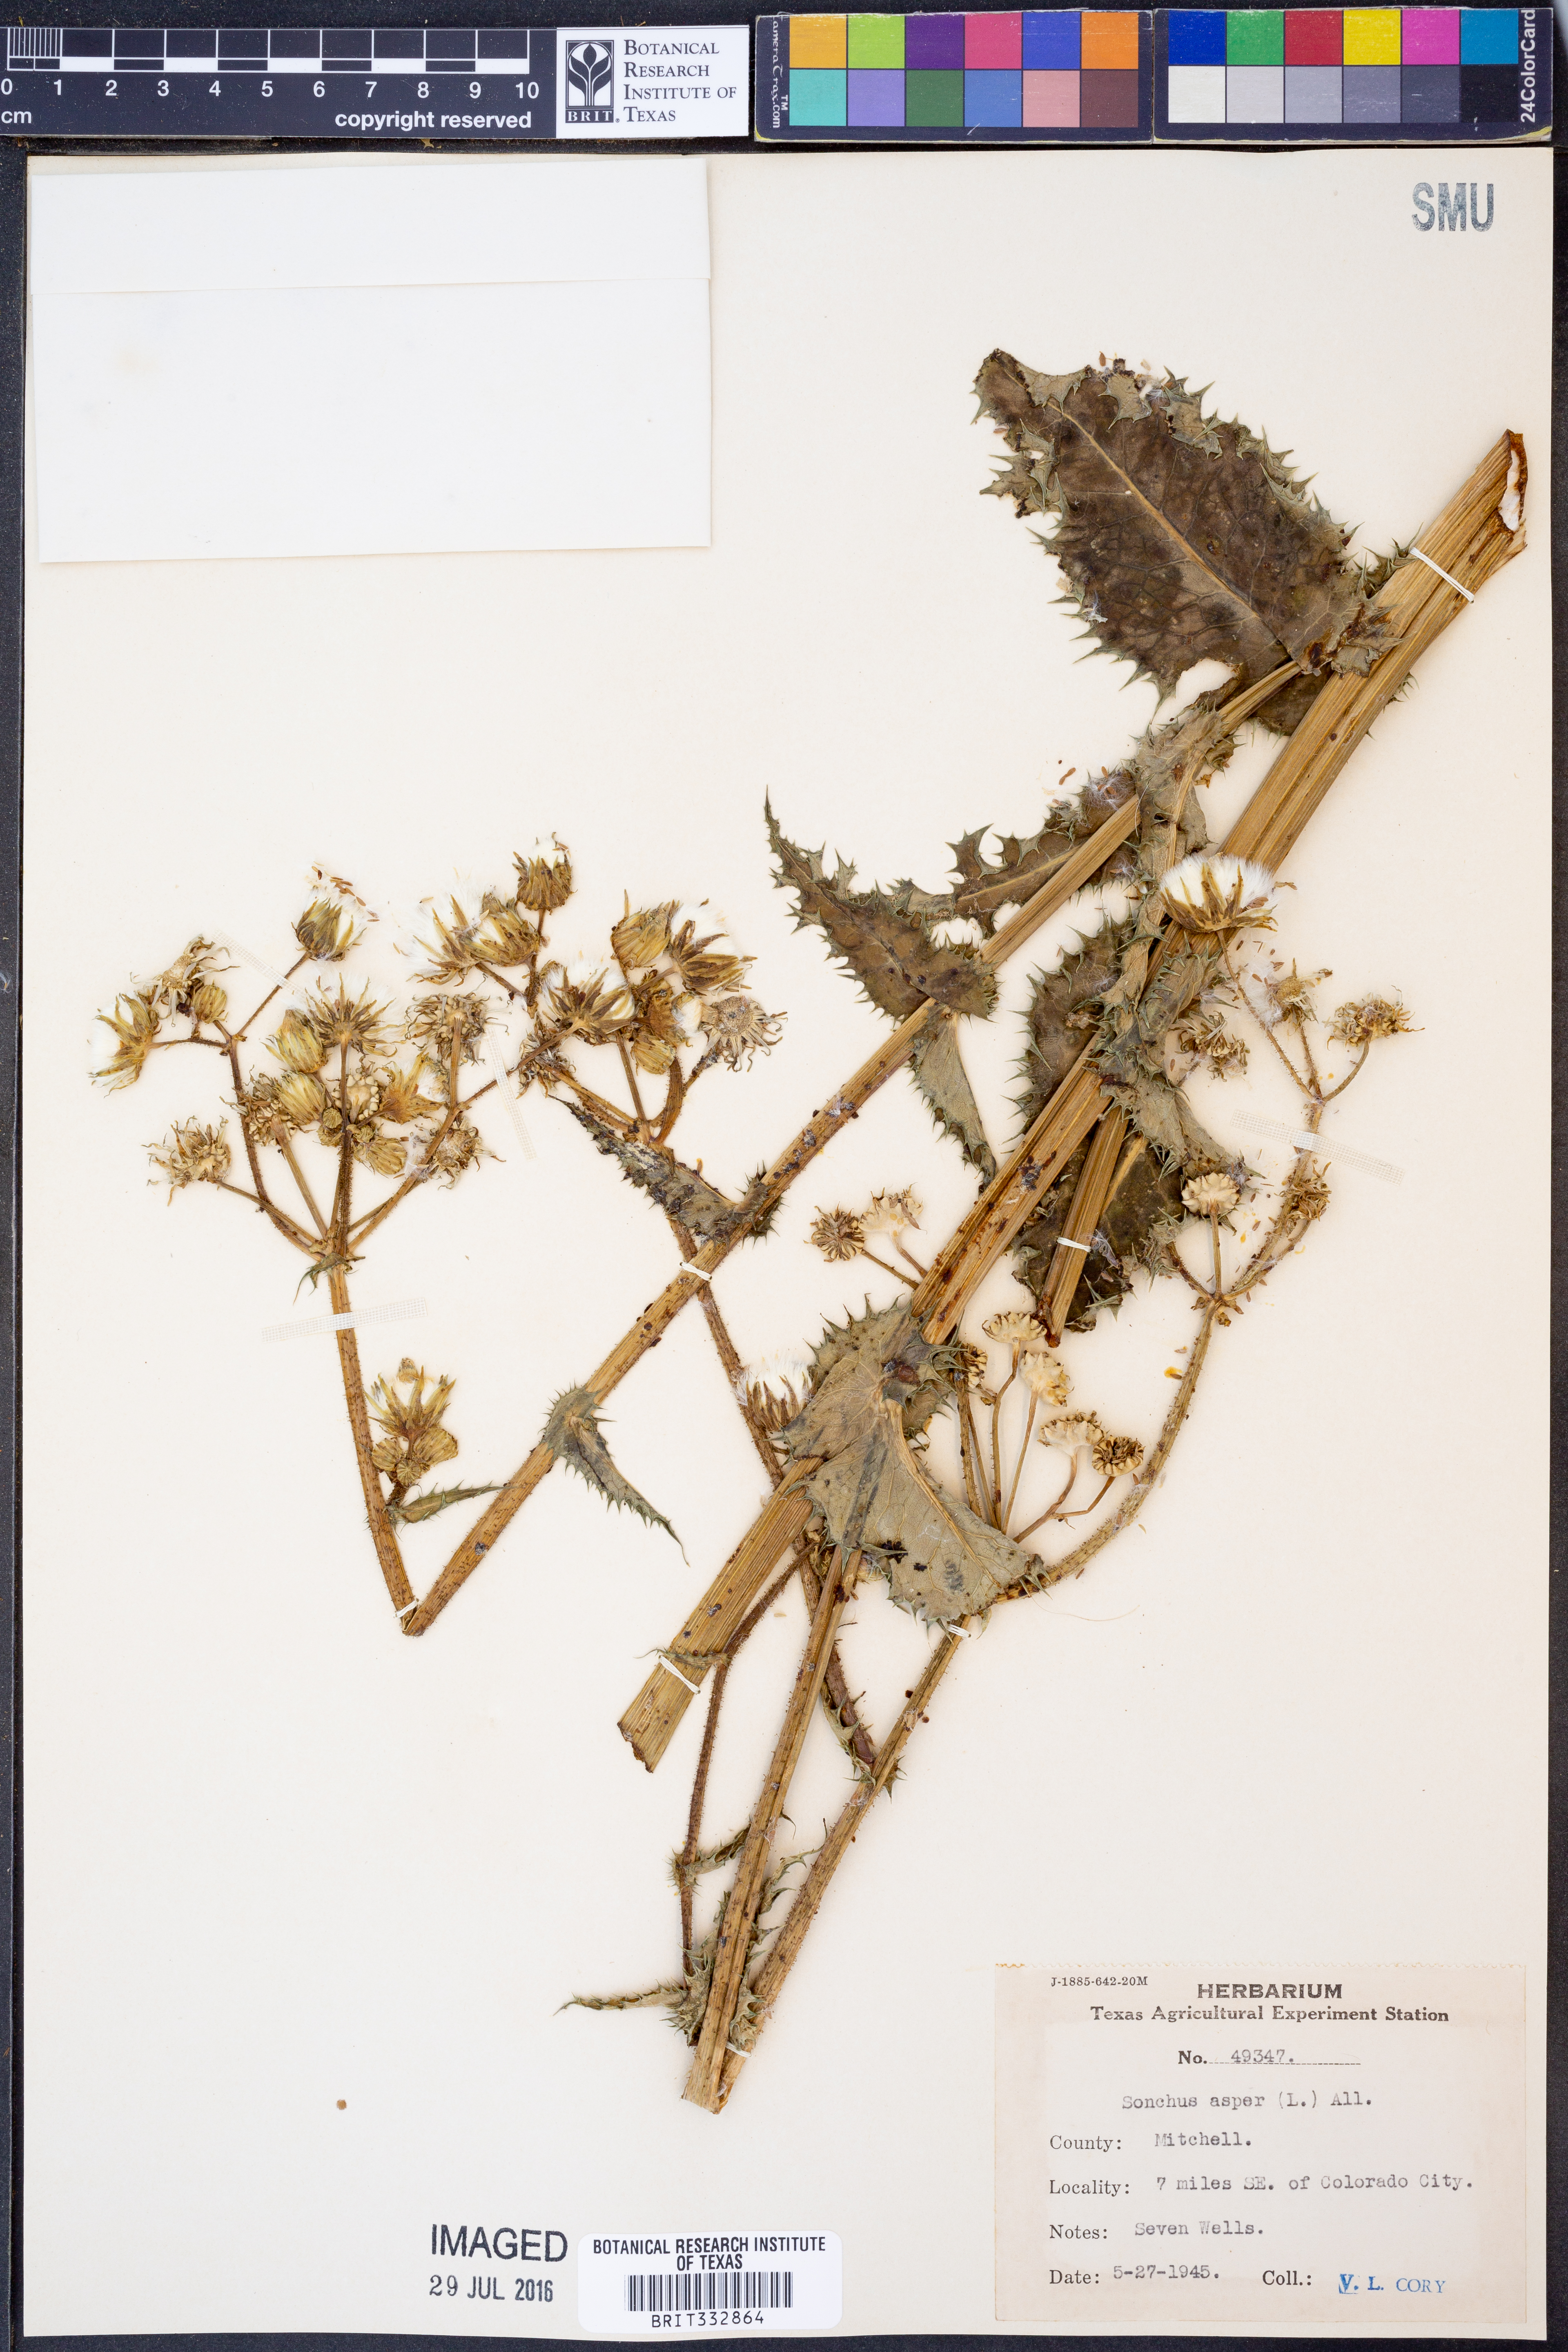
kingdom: Plantae
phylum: Tracheophyta
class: Magnoliopsida
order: Asterales
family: Asteraceae
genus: Sonchus
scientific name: Sonchus asper
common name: Prickly sow-thistle
